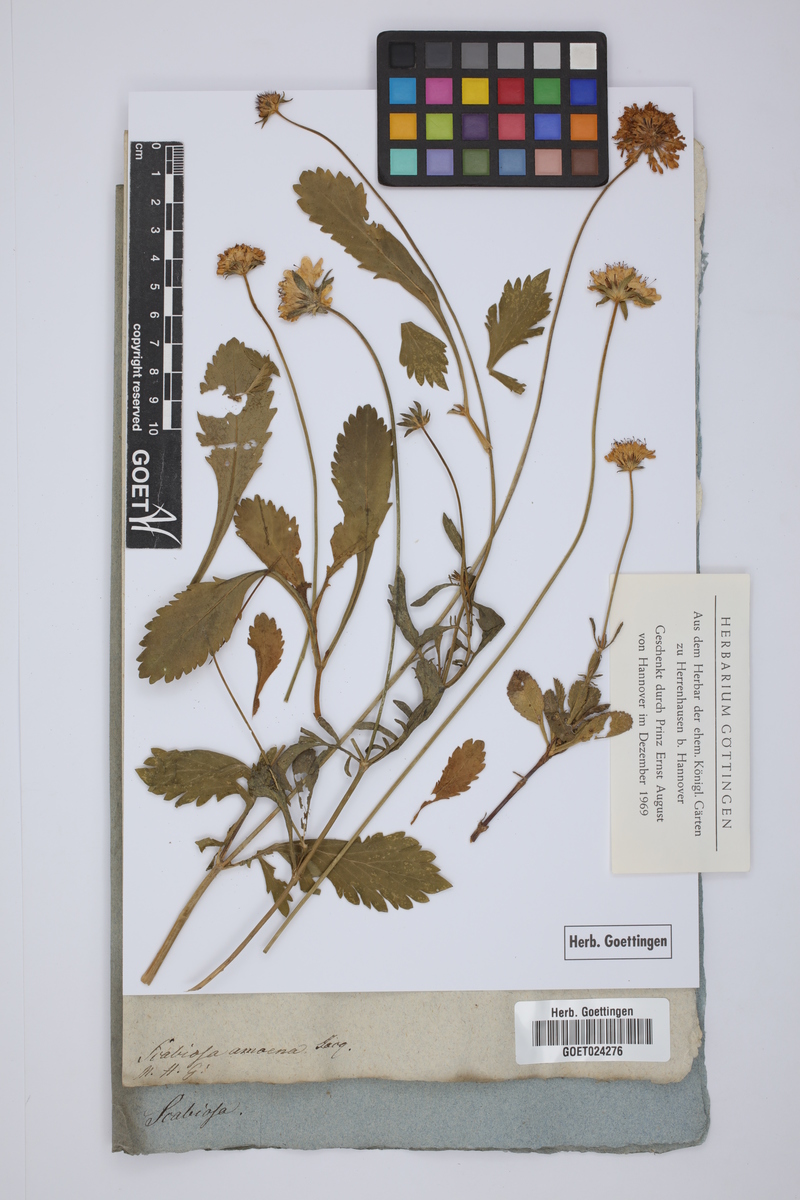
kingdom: Plantae
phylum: Tracheophyta
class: Magnoliopsida
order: Dipsacales
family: Caprifoliaceae
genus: Scabiosa
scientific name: Scabiosa amoena
